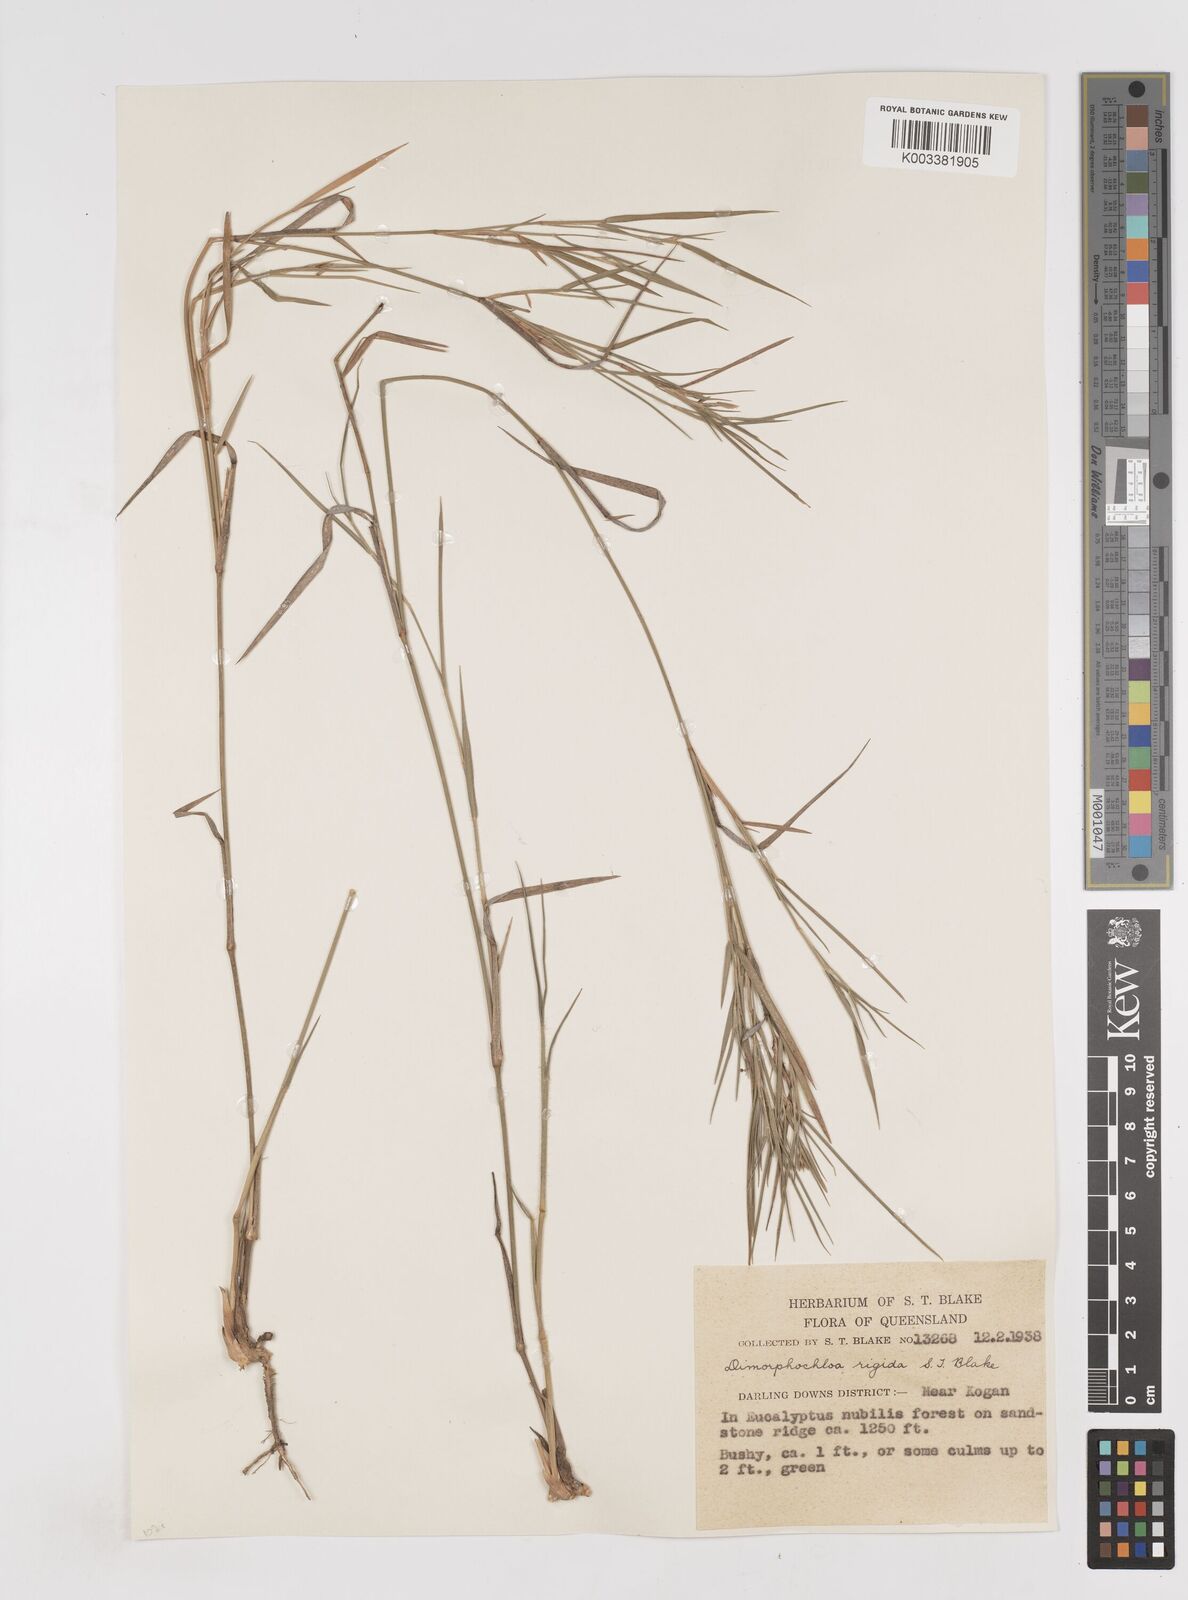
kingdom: Plantae
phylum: Tracheophyta
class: Liliopsida
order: Poales
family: Poaceae
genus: Dimorphochloa
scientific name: Dimorphochloa rigida
